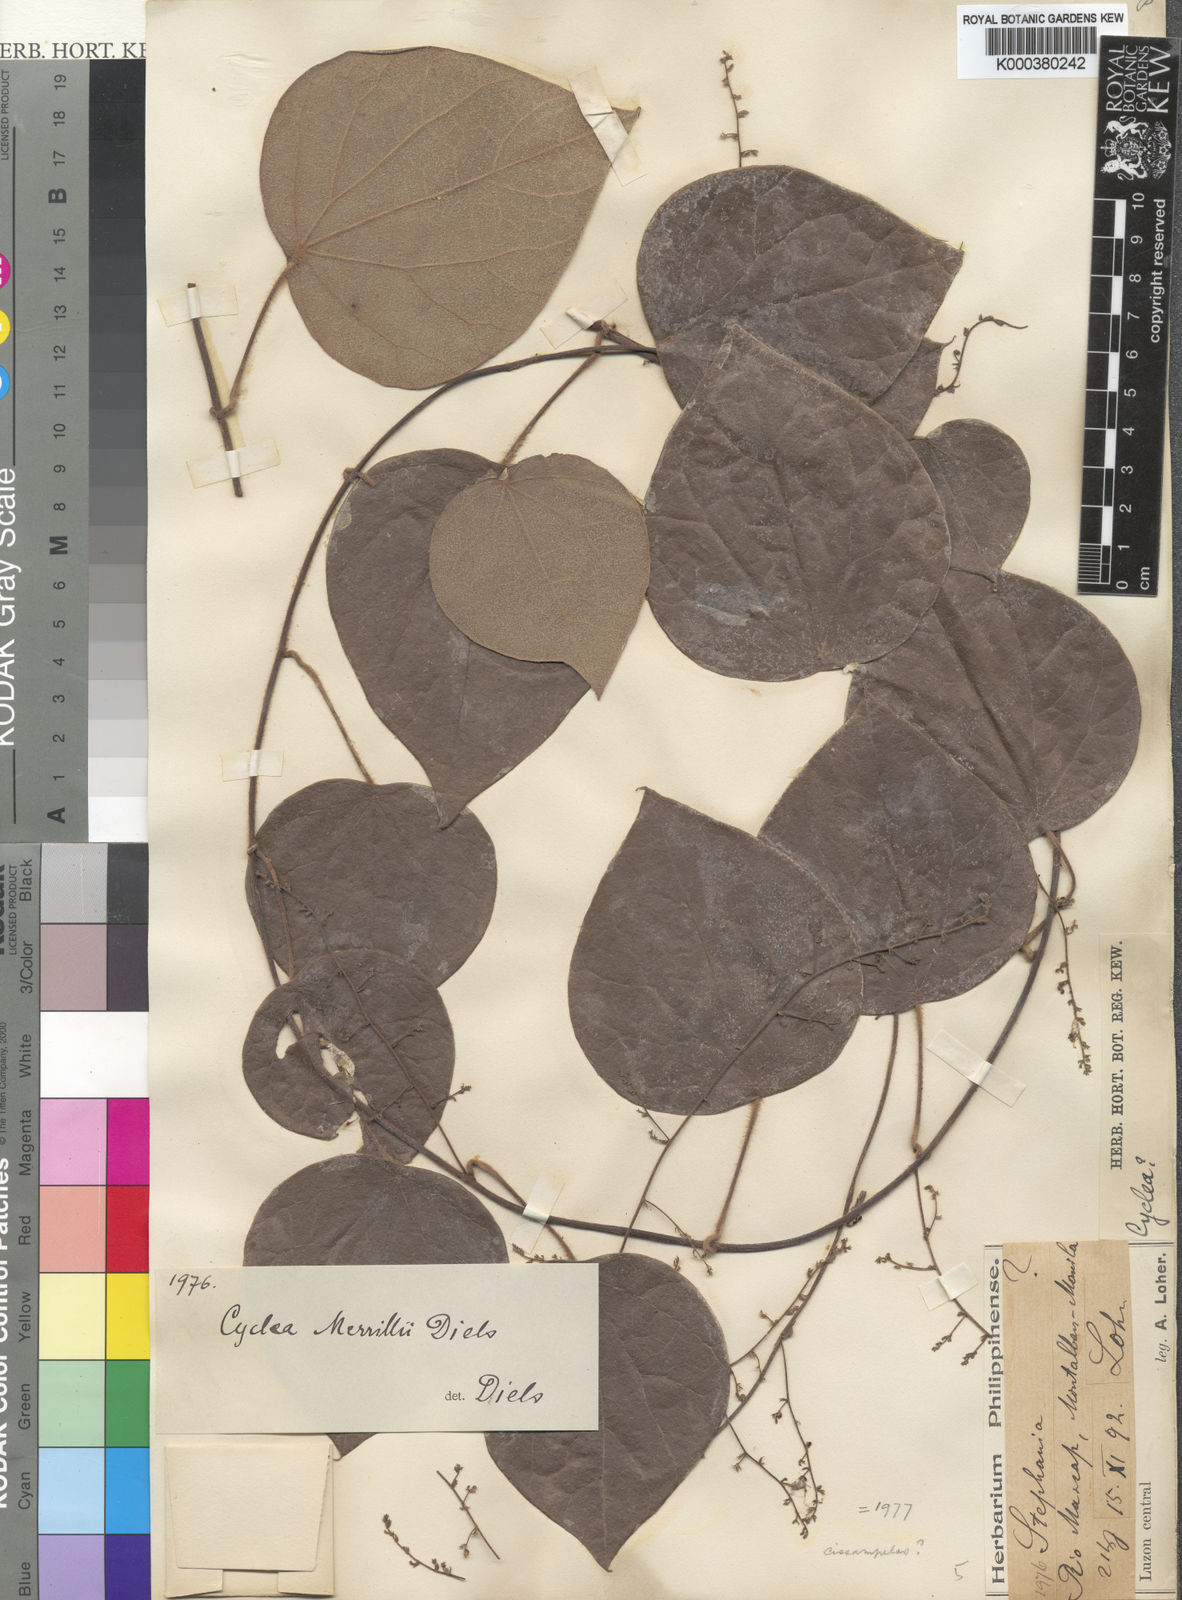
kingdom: Plantae
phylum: Tracheophyta
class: Magnoliopsida
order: Ranunculales
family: Menispermaceae
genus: Cyclea
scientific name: Cyclea merrillii
